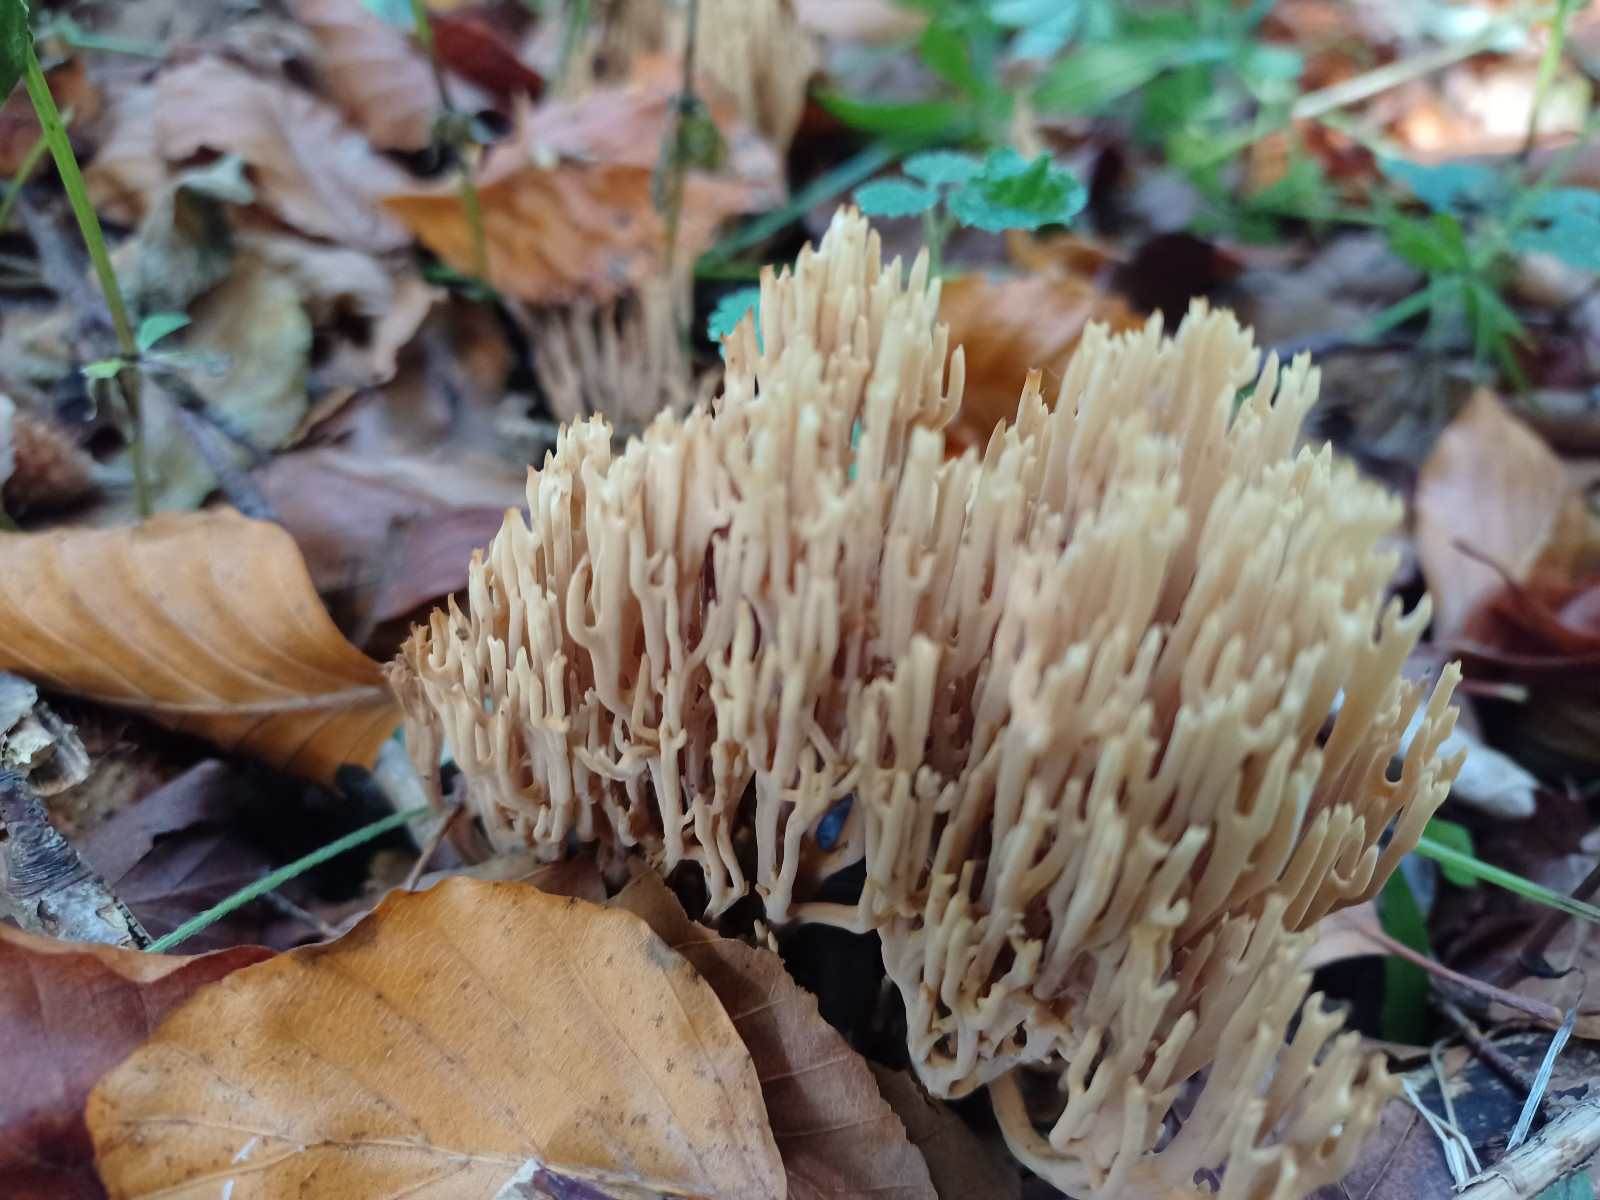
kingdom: Fungi
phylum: Basidiomycota
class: Agaricomycetes
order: Gomphales
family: Gomphaceae
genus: Ramaria
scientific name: Ramaria stricta
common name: rank koralsvamp
